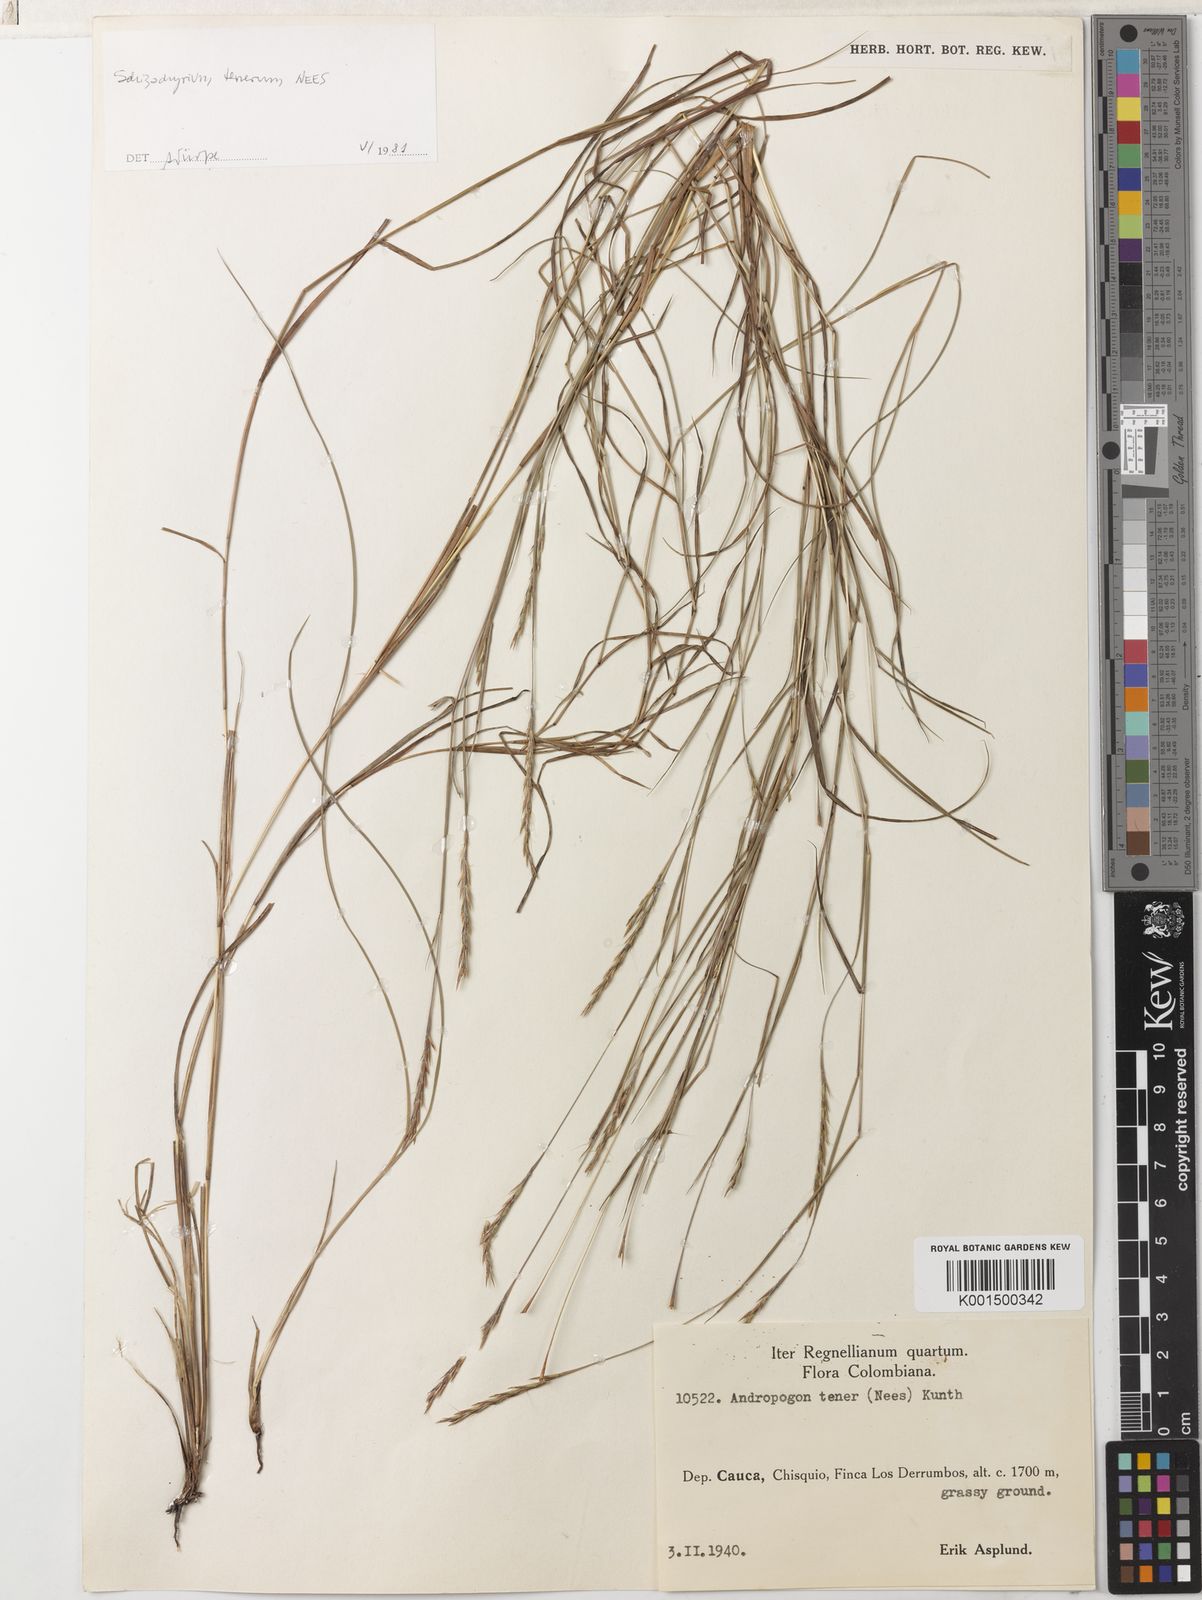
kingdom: Plantae
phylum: Tracheophyta
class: Liliopsida
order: Poales
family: Poaceae
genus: Andropogon
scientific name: Andropogon tener
